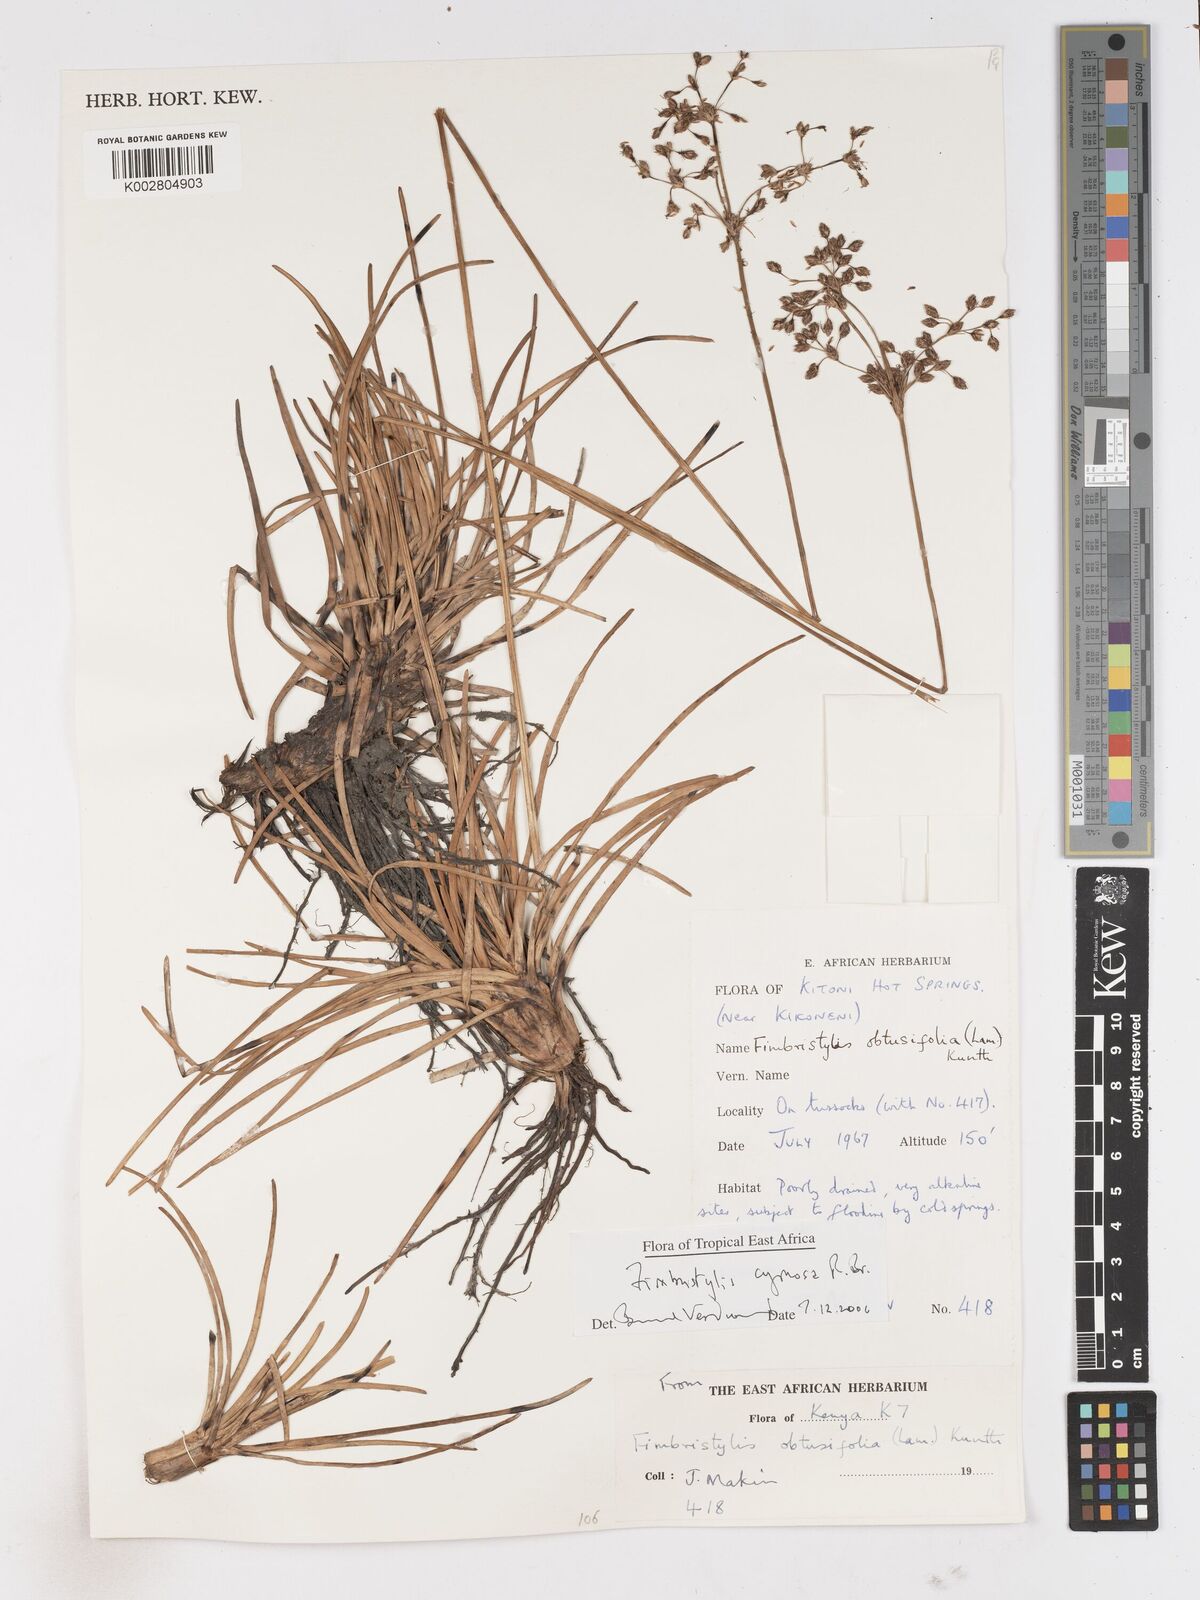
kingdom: Plantae
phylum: Tracheophyta
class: Liliopsida
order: Poales
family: Cyperaceae
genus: Fimbristylis
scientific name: Fimbristylis cymosa
